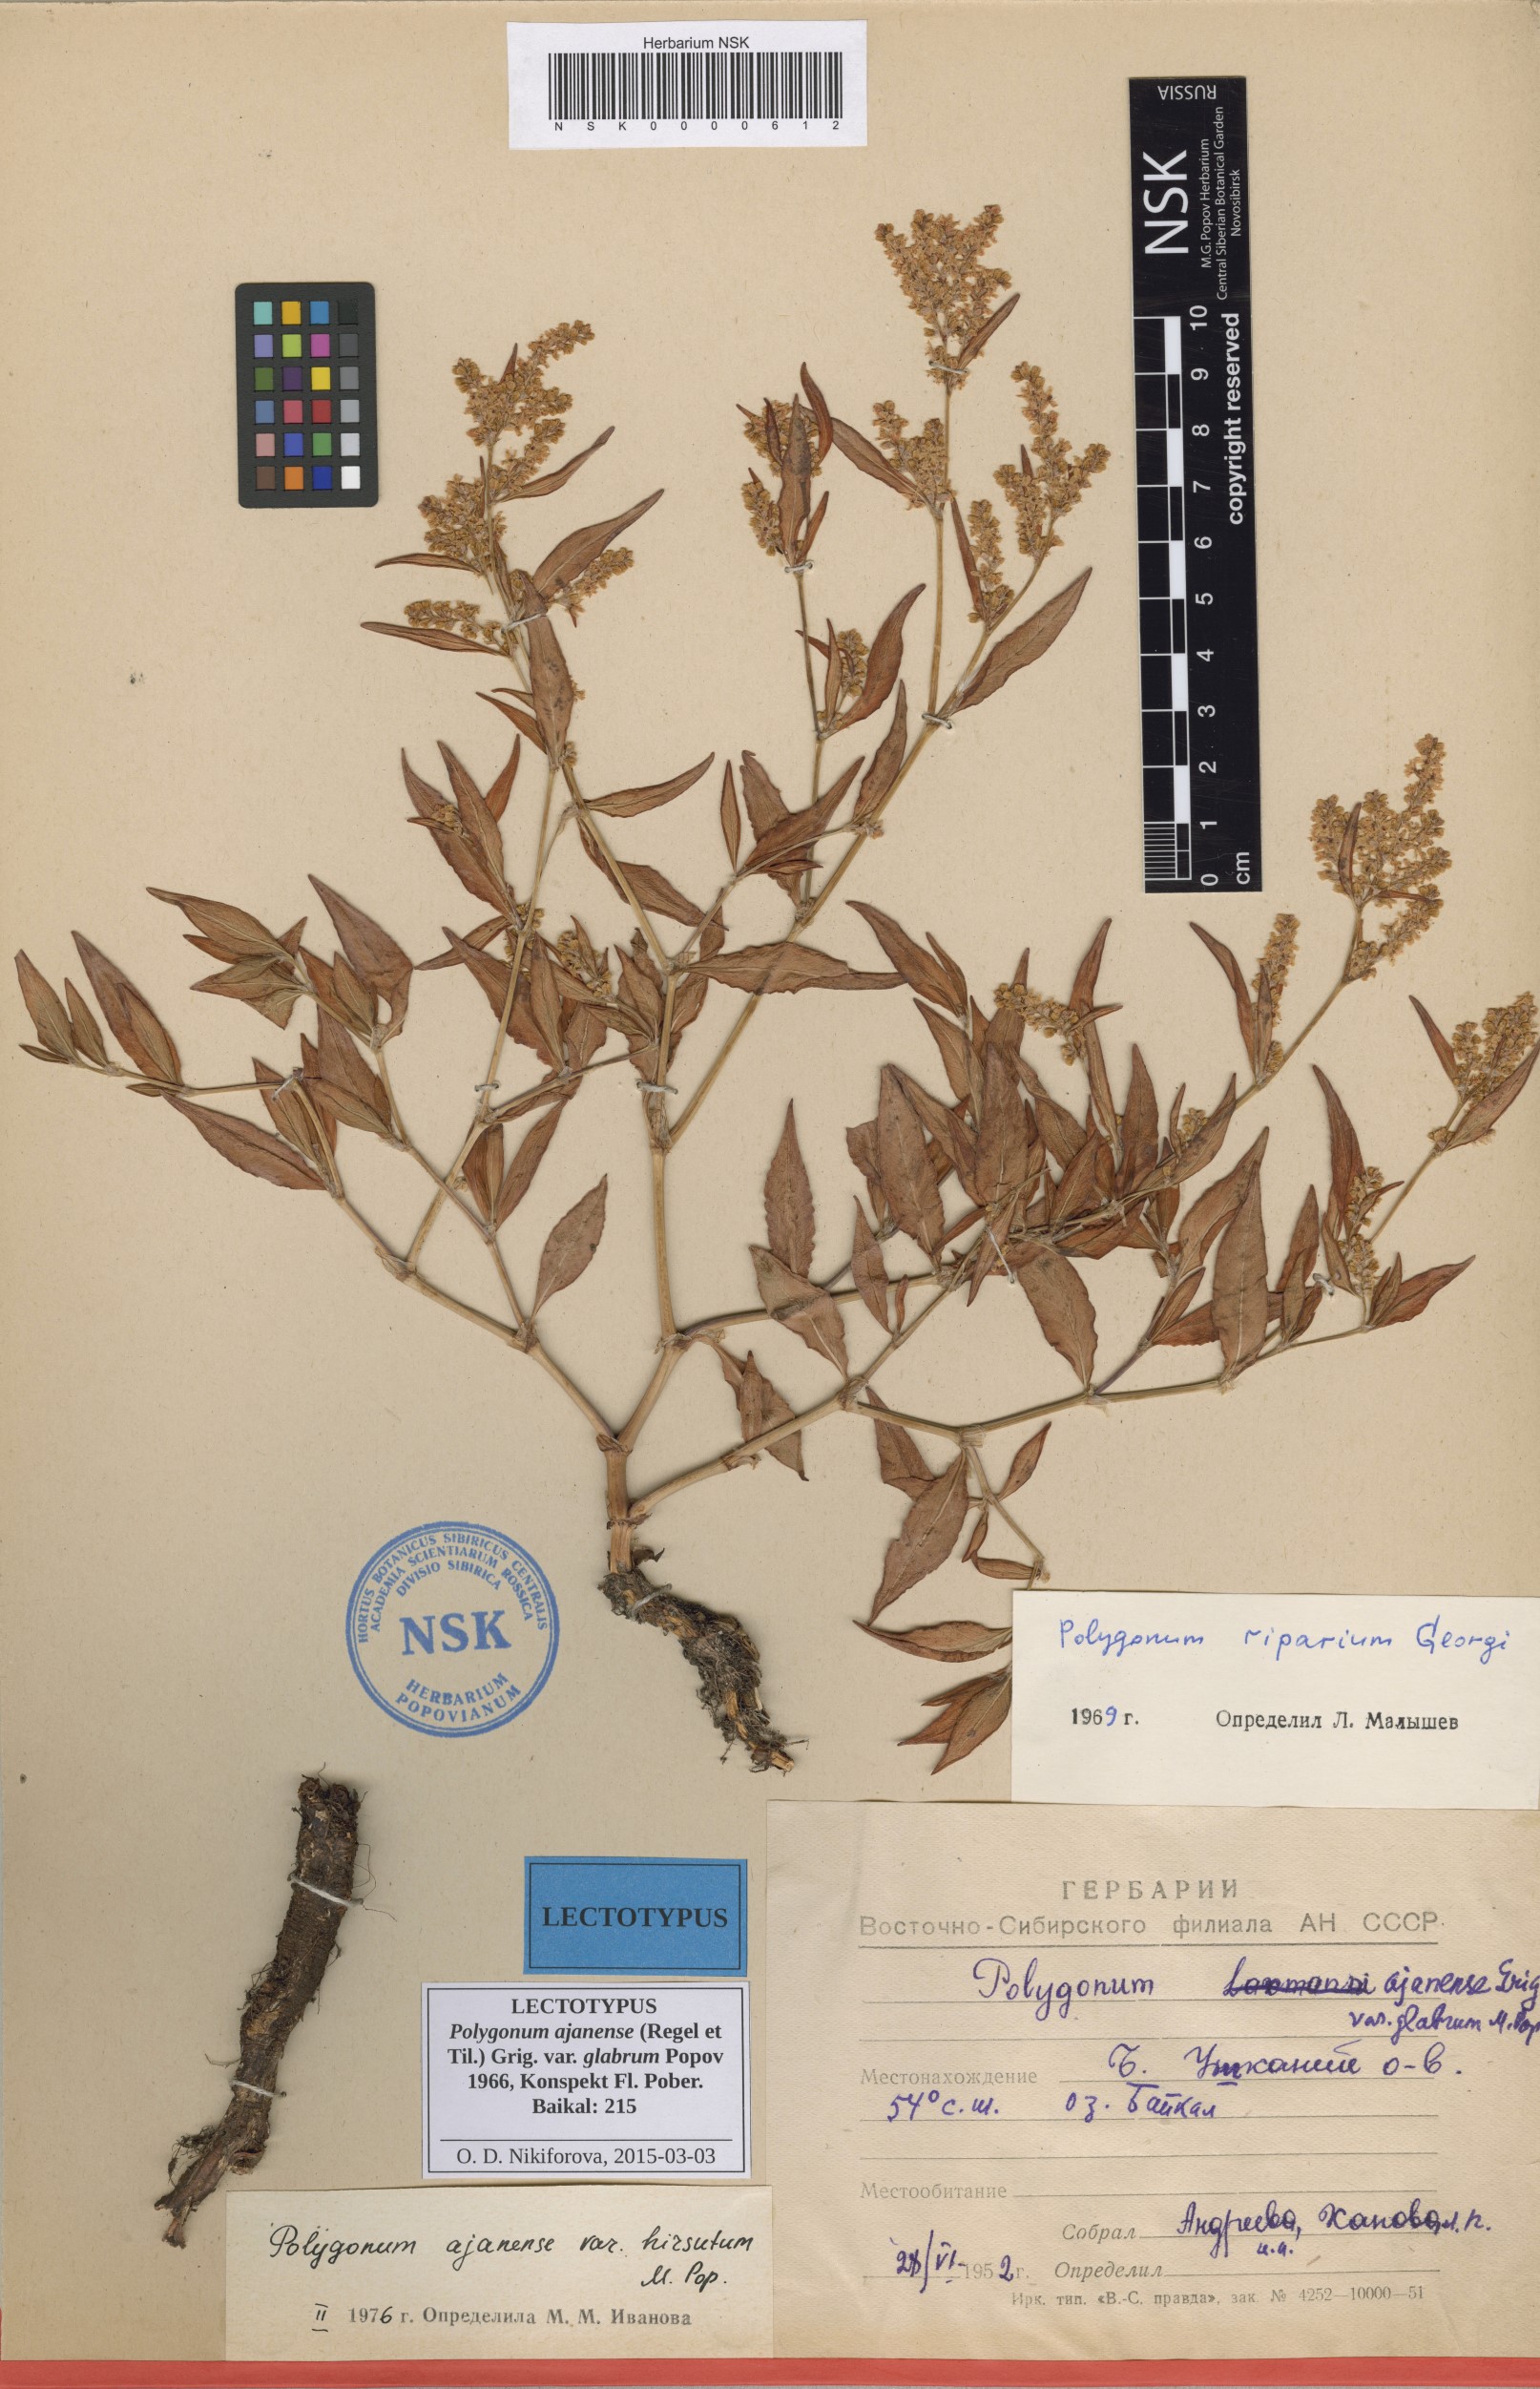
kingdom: Plantae
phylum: Tracheophyta
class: Magnoliopsida
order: Caryophyllales
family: Polygonaceae
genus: Polygonum
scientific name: Polygonum ajanense
